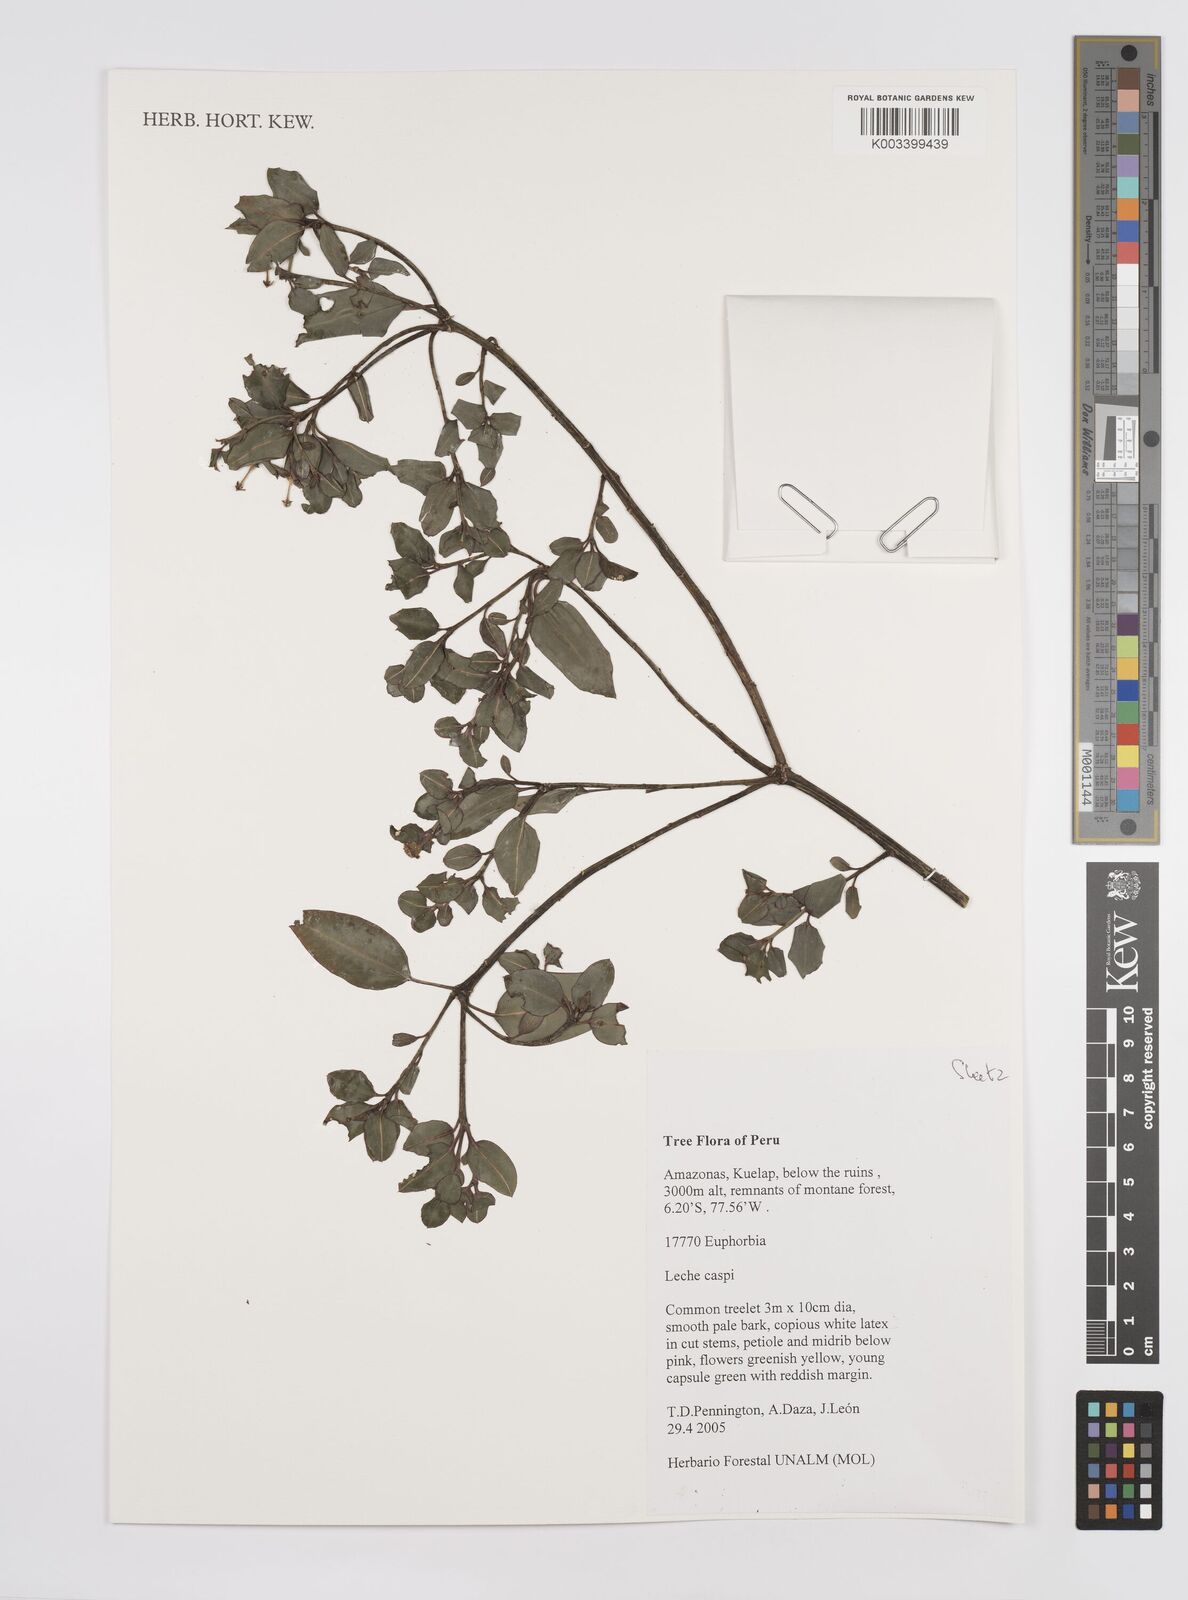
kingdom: Plantae
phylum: Tracheophyta
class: Magnoliopsida
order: Malpighiales
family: Euphorbiaceae
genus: Euphorbia
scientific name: Euphorbia
